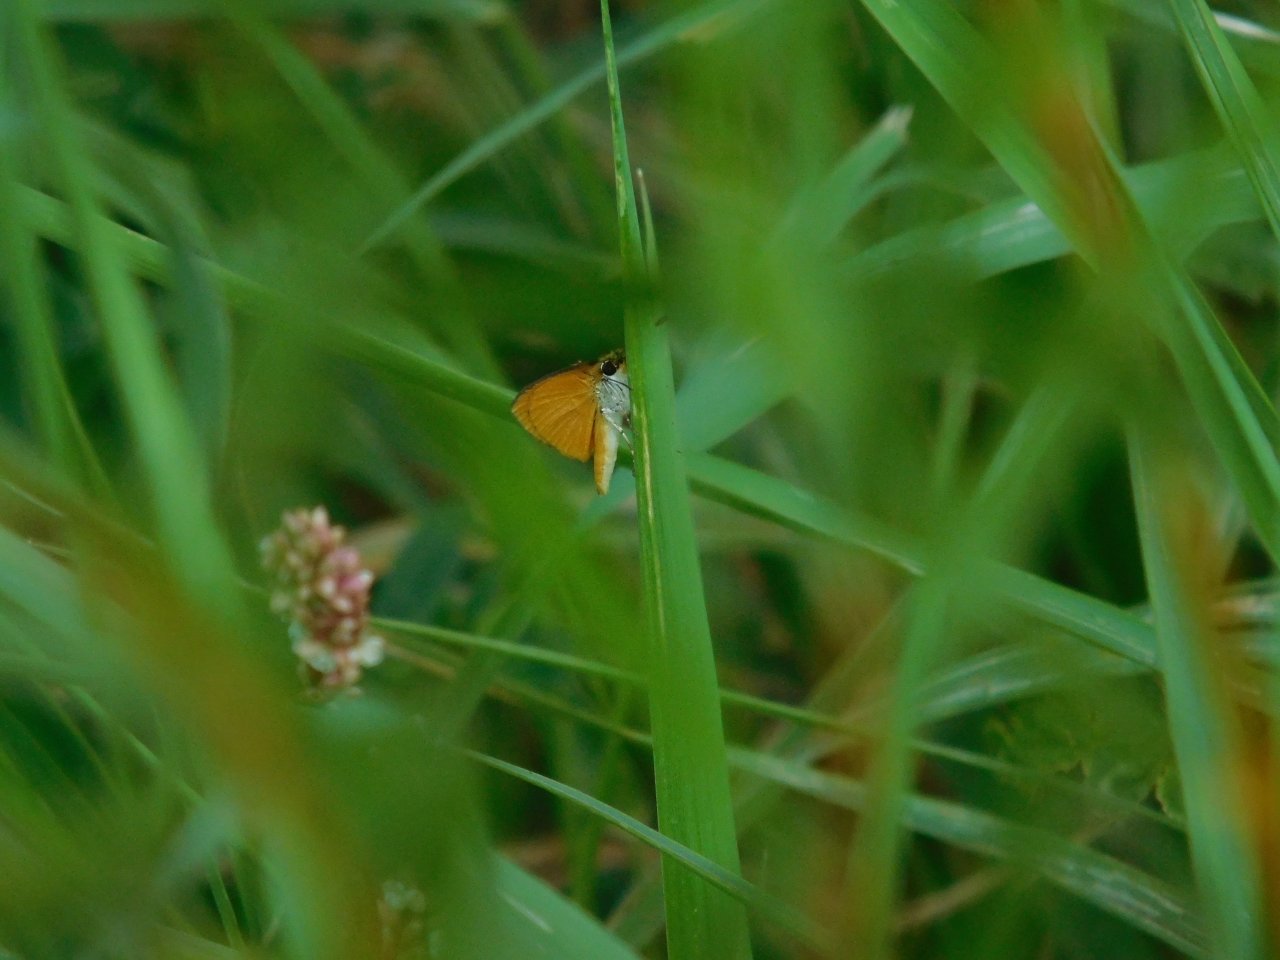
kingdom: Animalia
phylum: Arthropoda
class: Insecta
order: Lepidoptera
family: Hesperiidae
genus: Ancyloxypha
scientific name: Ancyloxypha numitor
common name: Least Skipper
